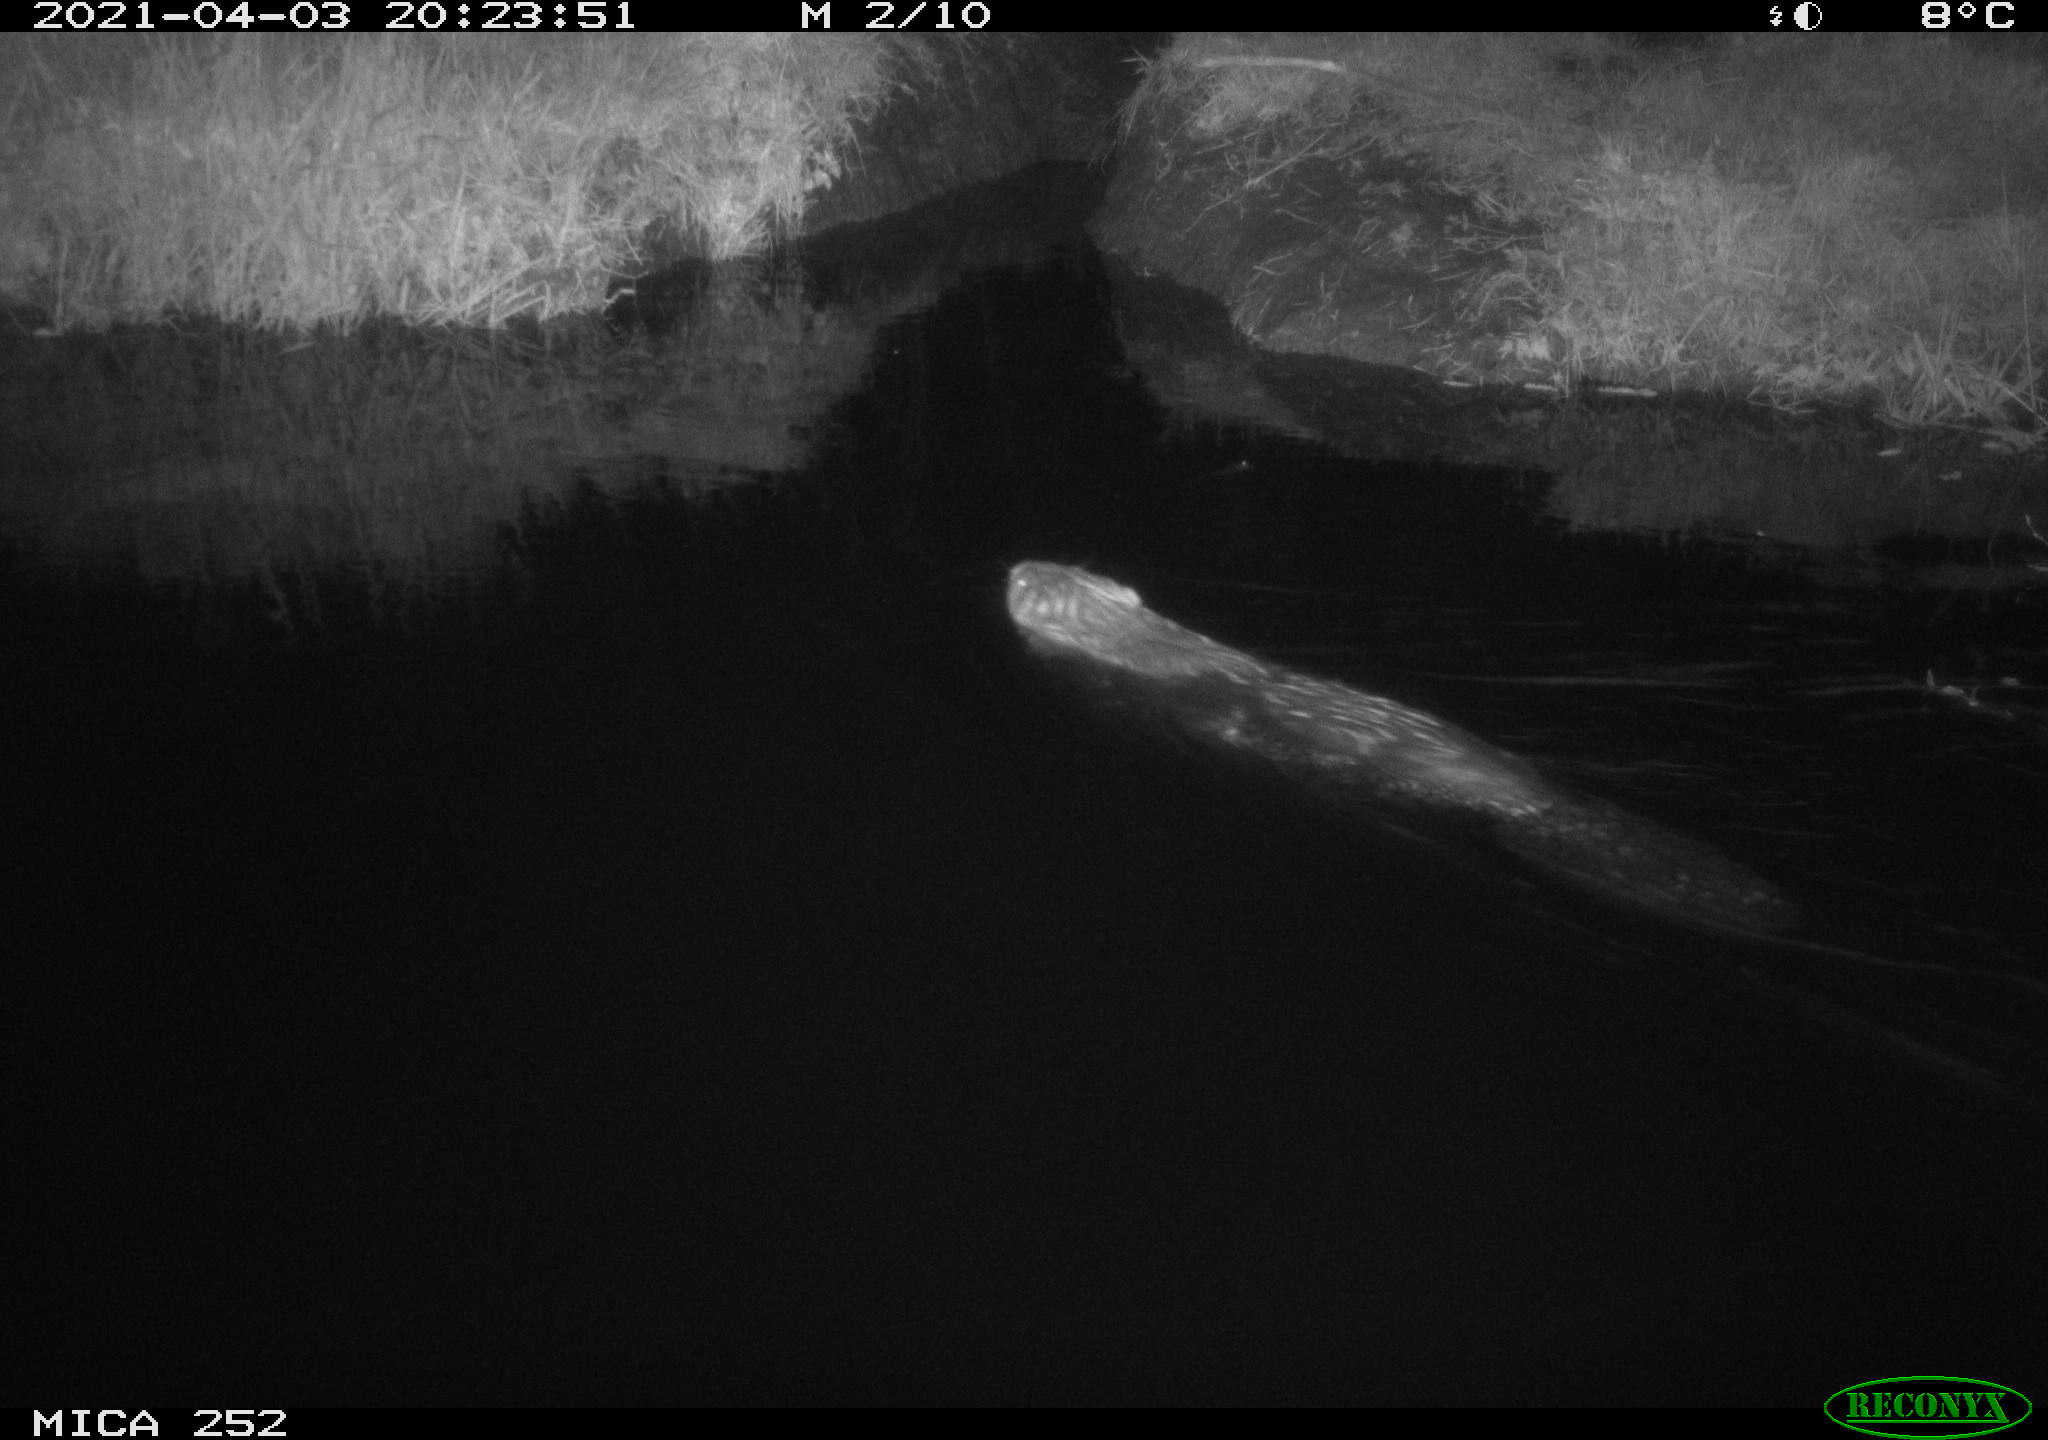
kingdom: Animalia
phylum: Chordata
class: Mammalia
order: Rodentia
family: Castoridae
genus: Castor
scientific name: Castor fiber
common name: Eurasian beaver
